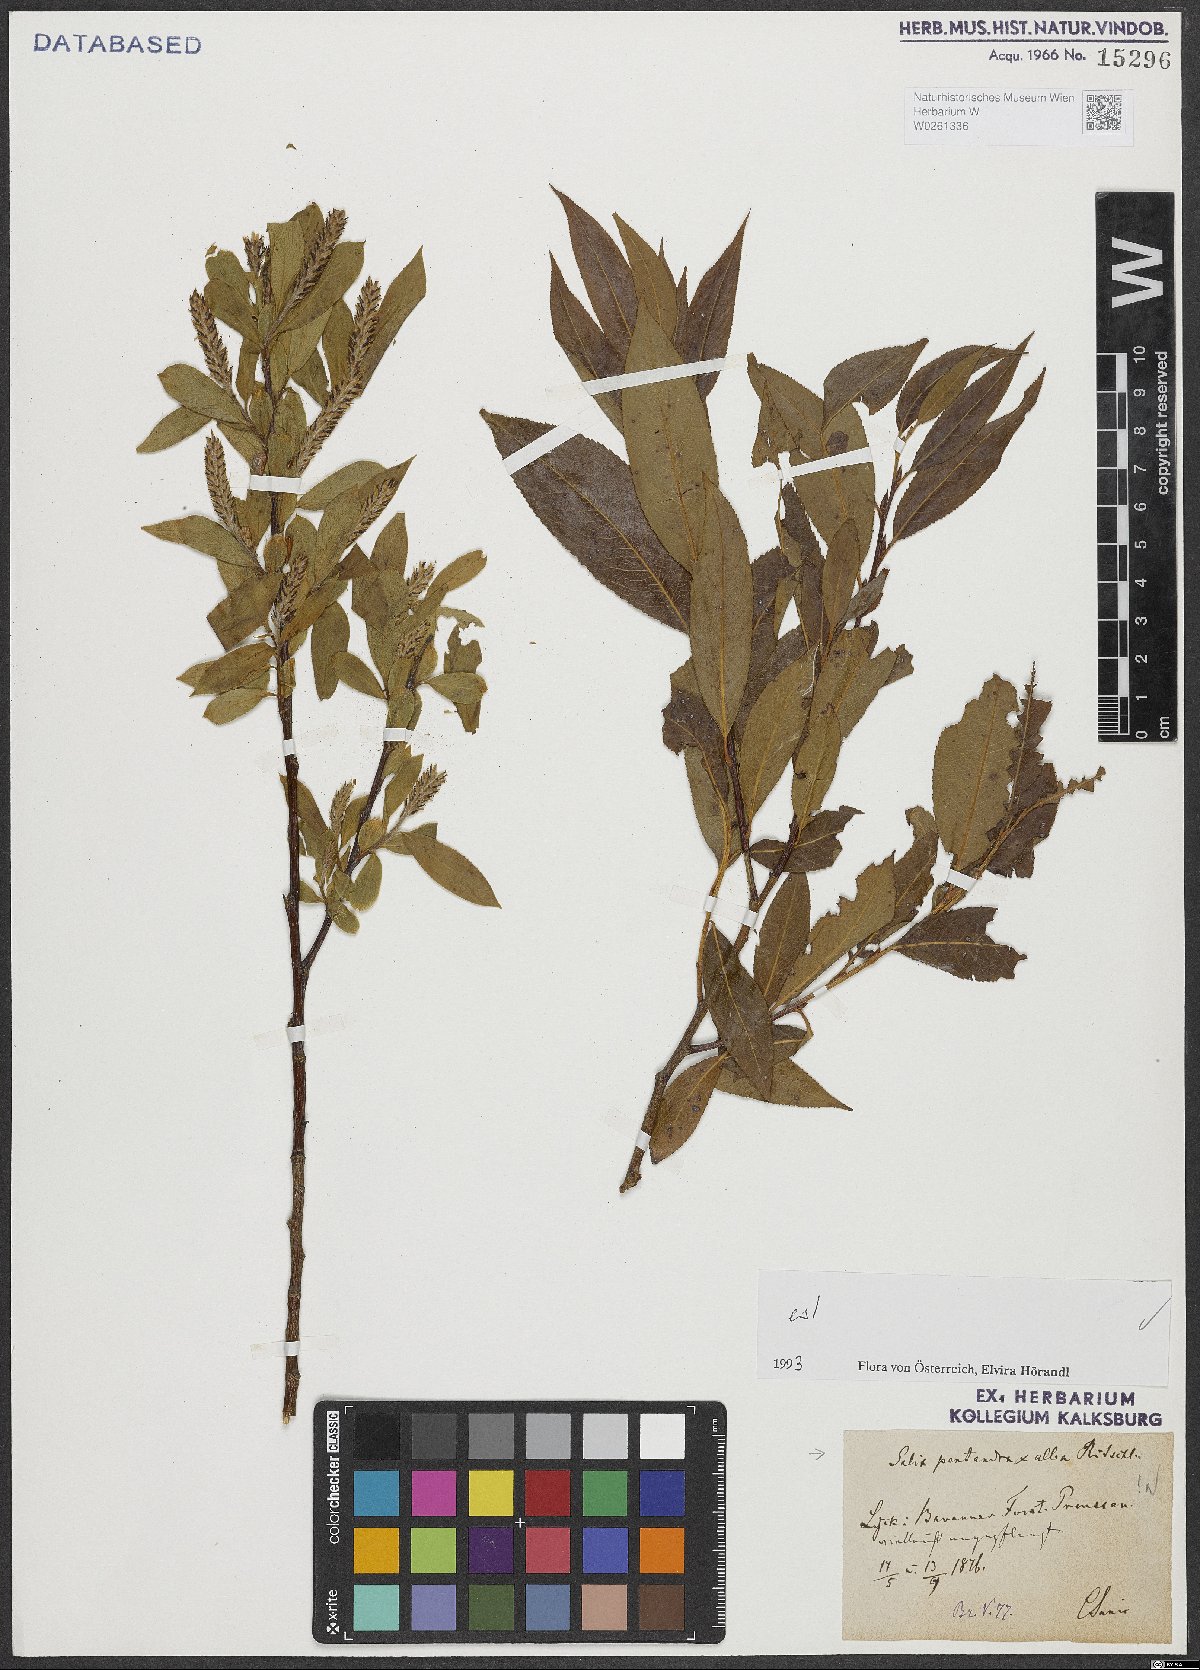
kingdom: Plantae
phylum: Tracheophyta
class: Magnoliopsida
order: Malpighiales
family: Salicaceae
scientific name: Salicaceae
